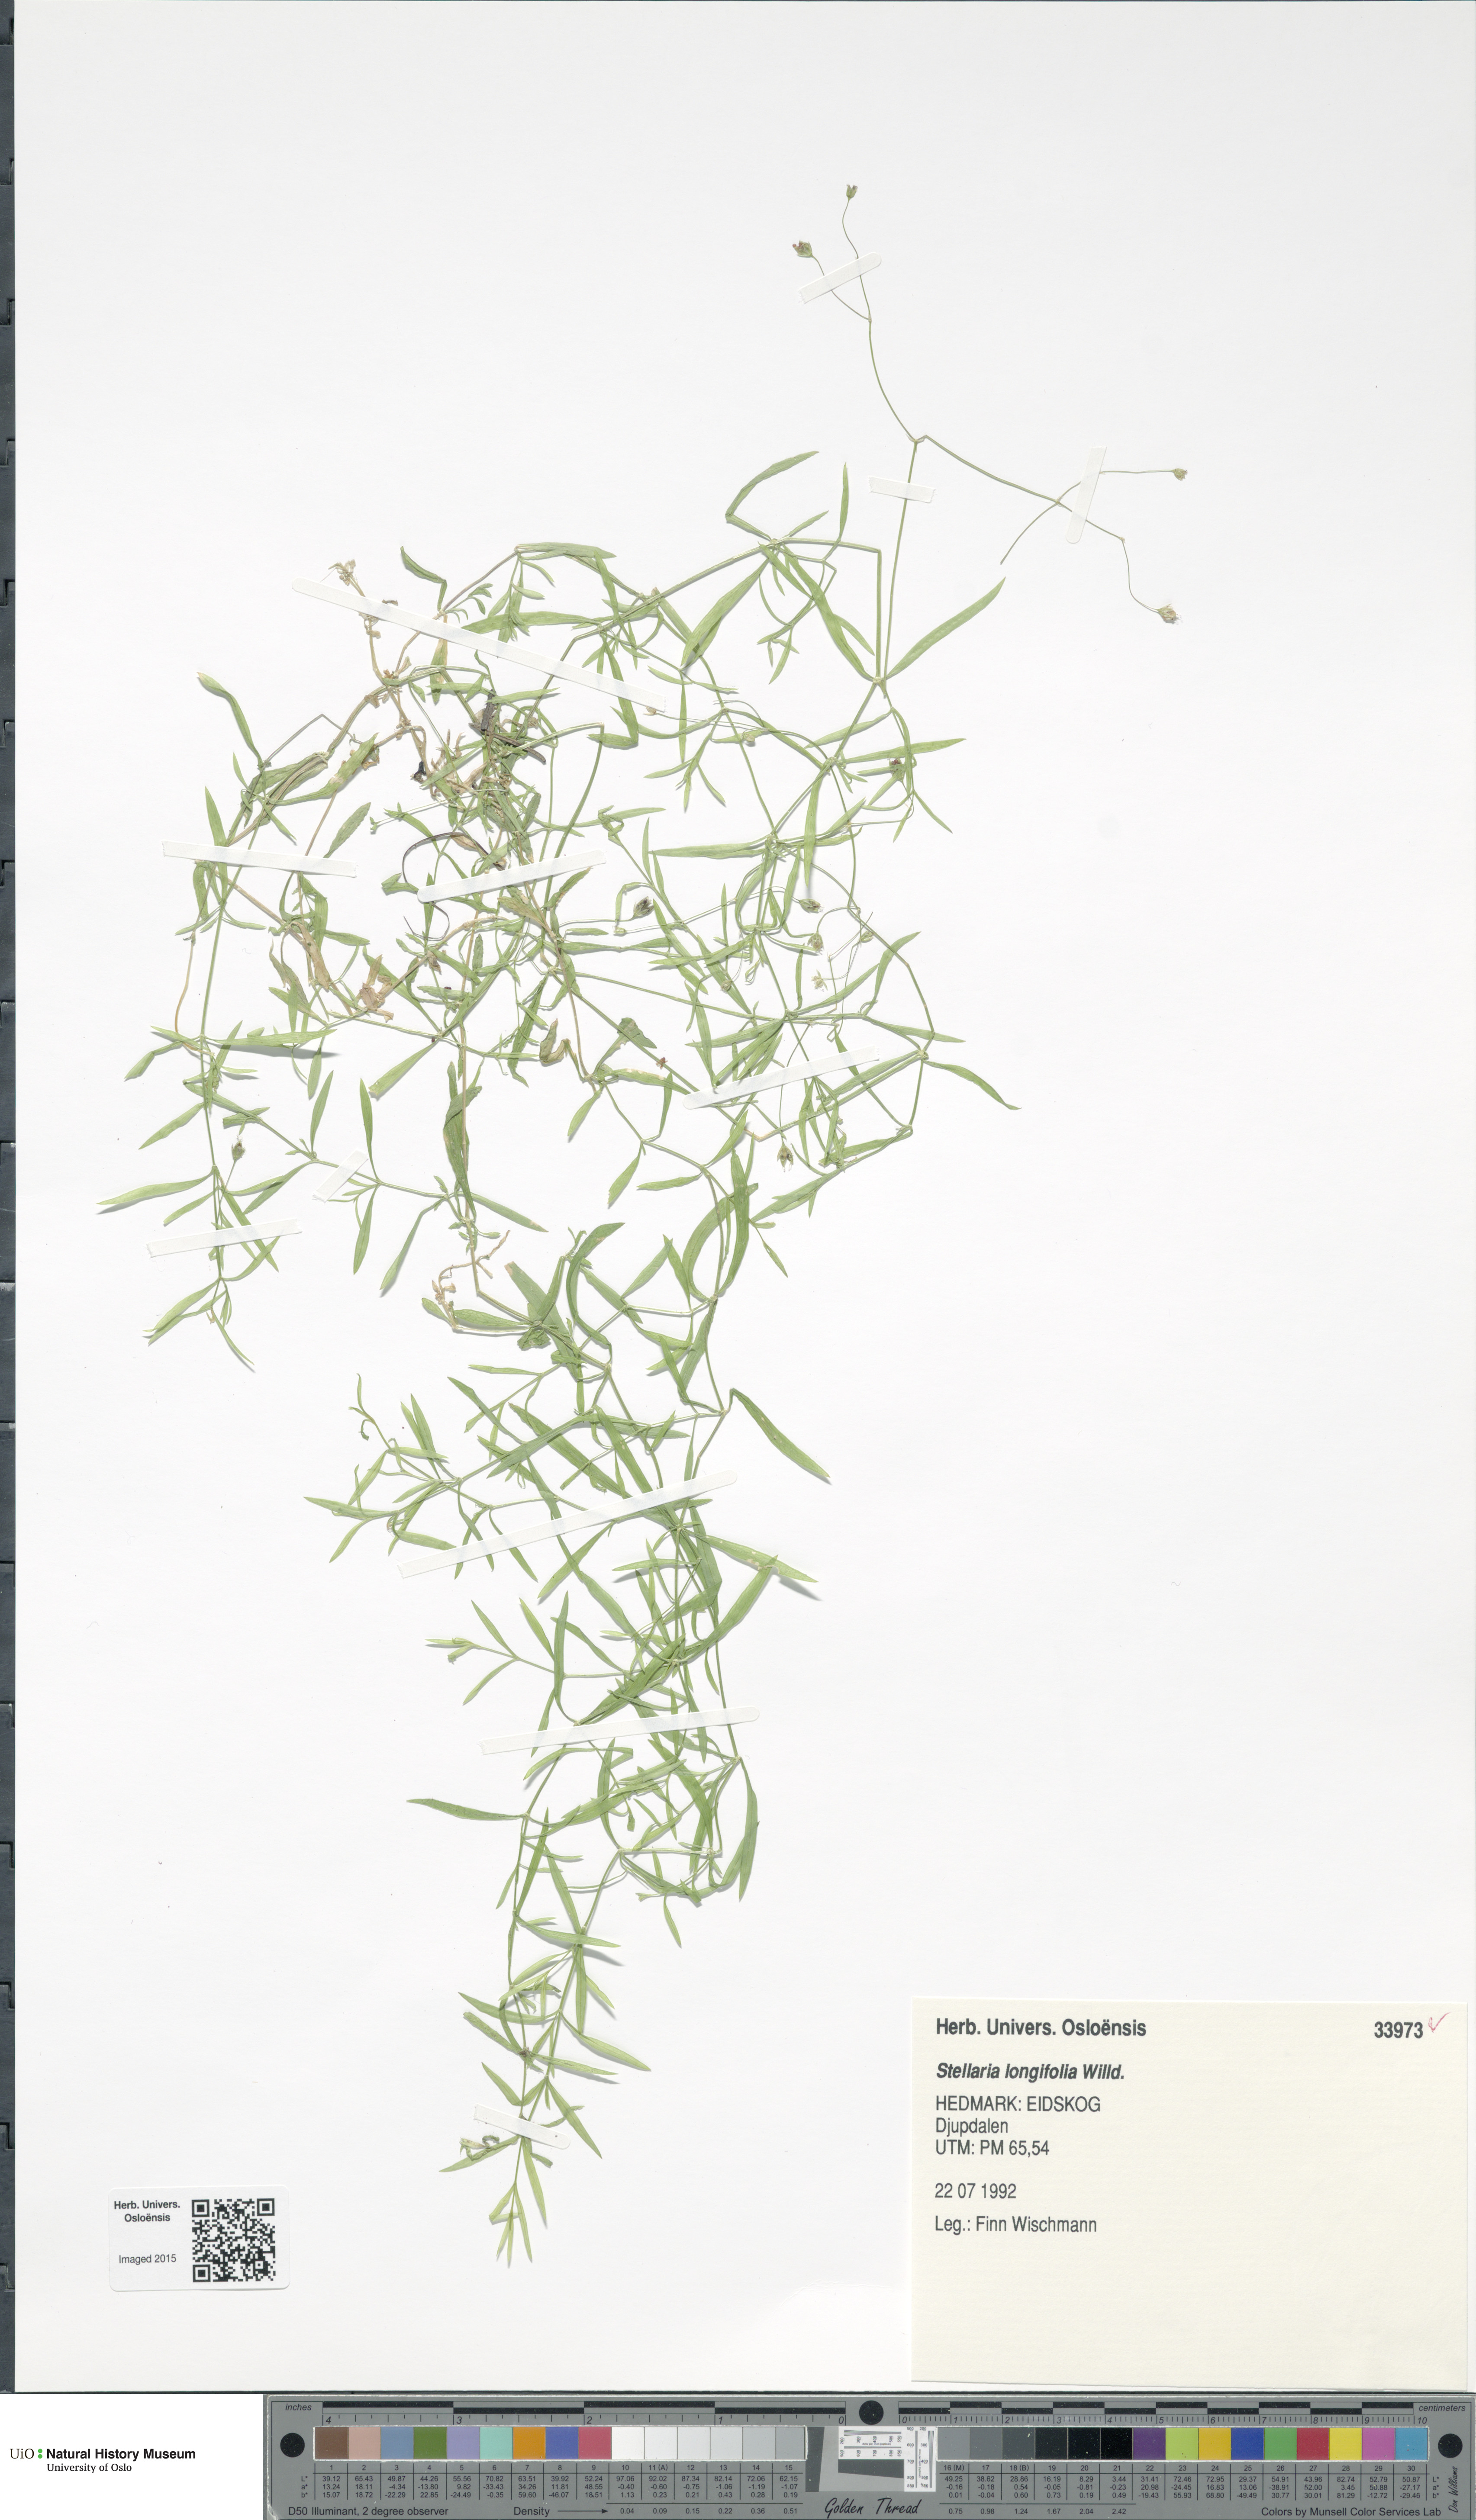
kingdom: Plantae
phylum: Tracheophyta
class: Magnoliopsida
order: Caryophyllales
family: Caryophyllaceae
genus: Stellaria
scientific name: Stellaria longifolia
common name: Long-leaved chickweed
